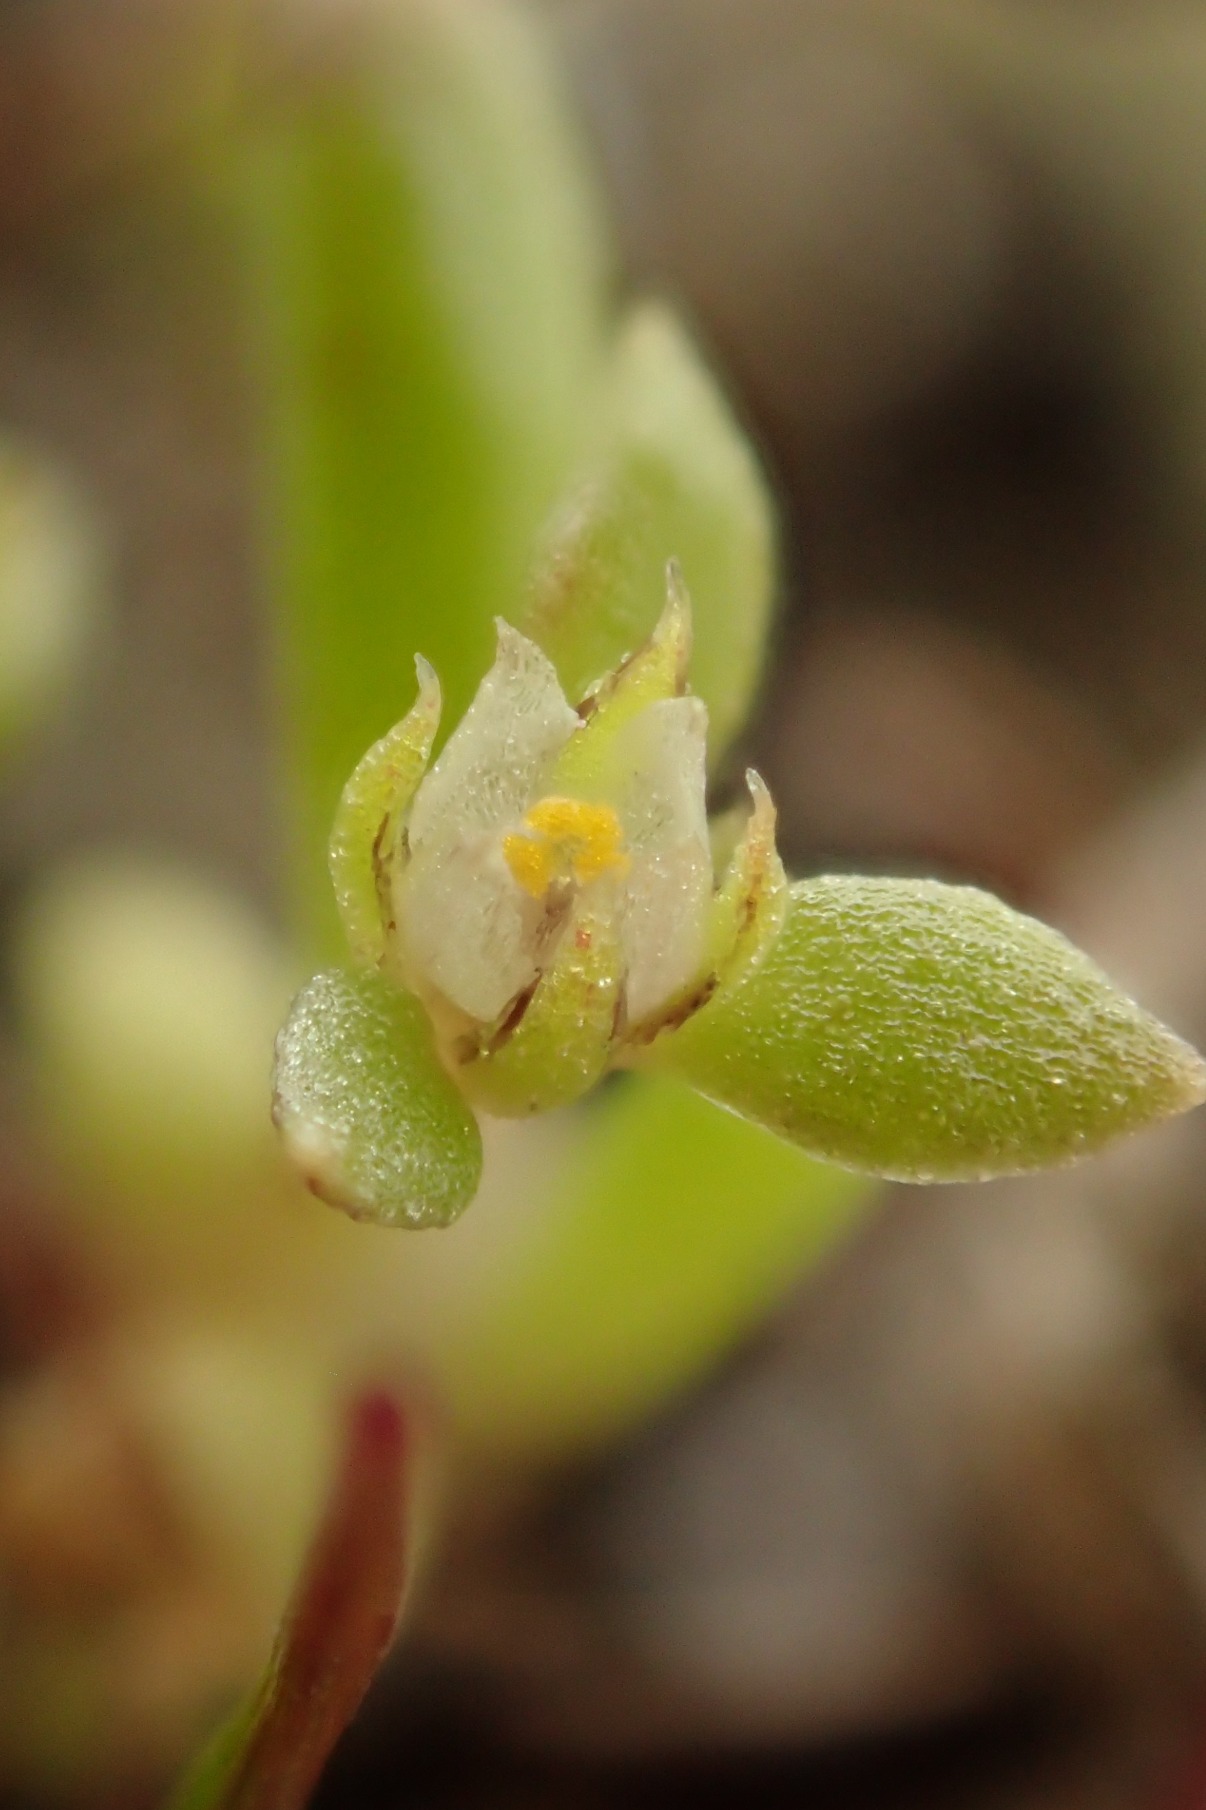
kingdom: Plantae
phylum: Tracheophyta
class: Magnoliopsida
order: Ericales
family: Primulaceae
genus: Lysimachia
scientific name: Lysimachia minima
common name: Knudearve
